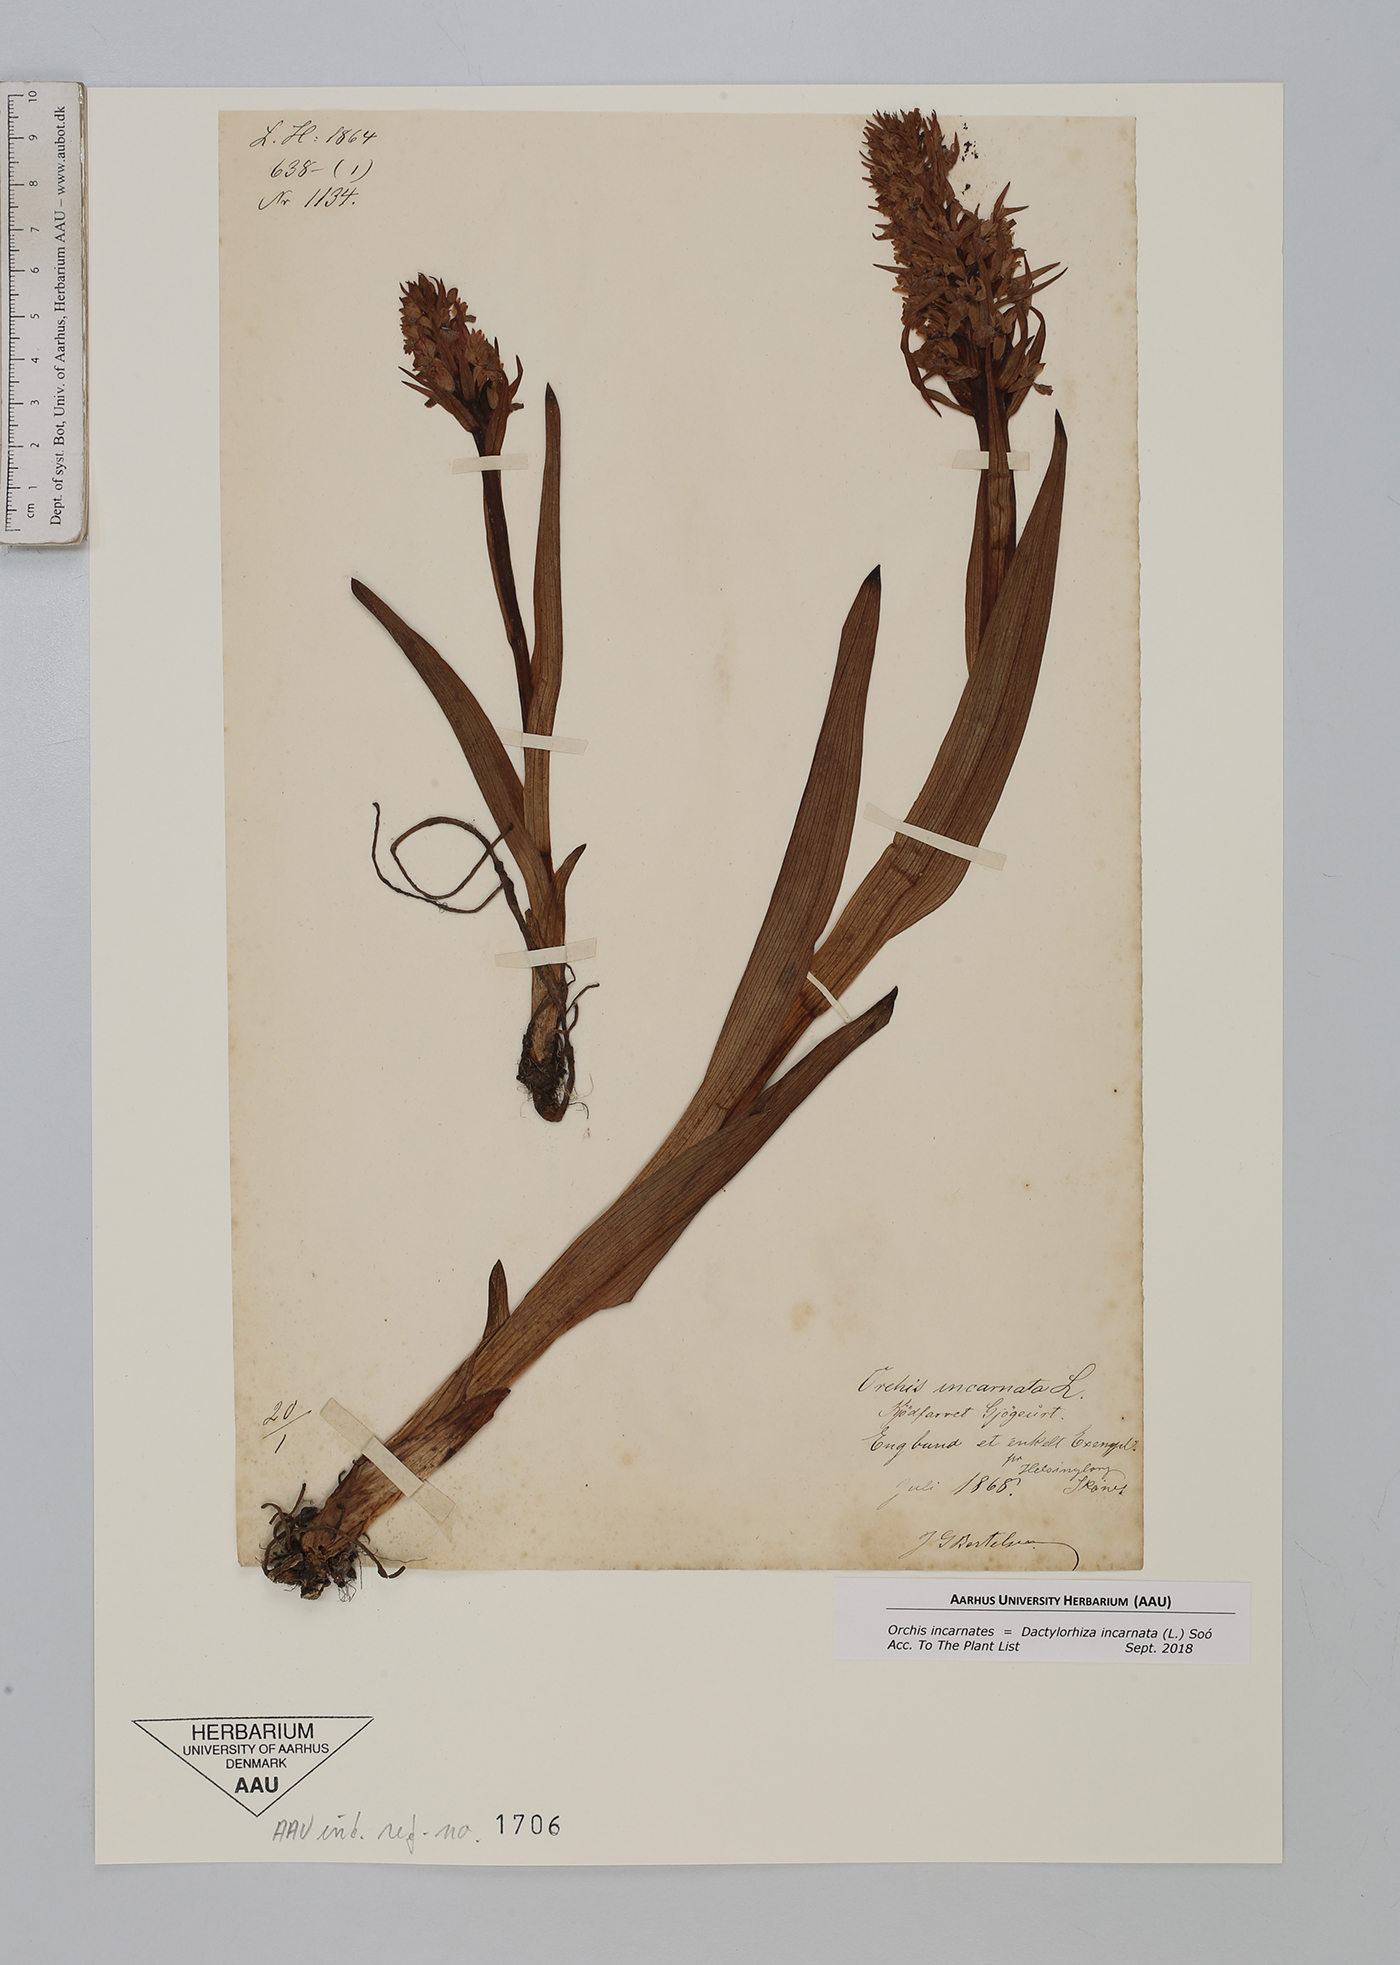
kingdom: Plantae
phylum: Tracheophyta
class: Liliopsida
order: Asparagales
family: Orchidaceae
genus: Dactylorhiza
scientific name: Dactylorhiza incarnata
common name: Early marsh-orchid
